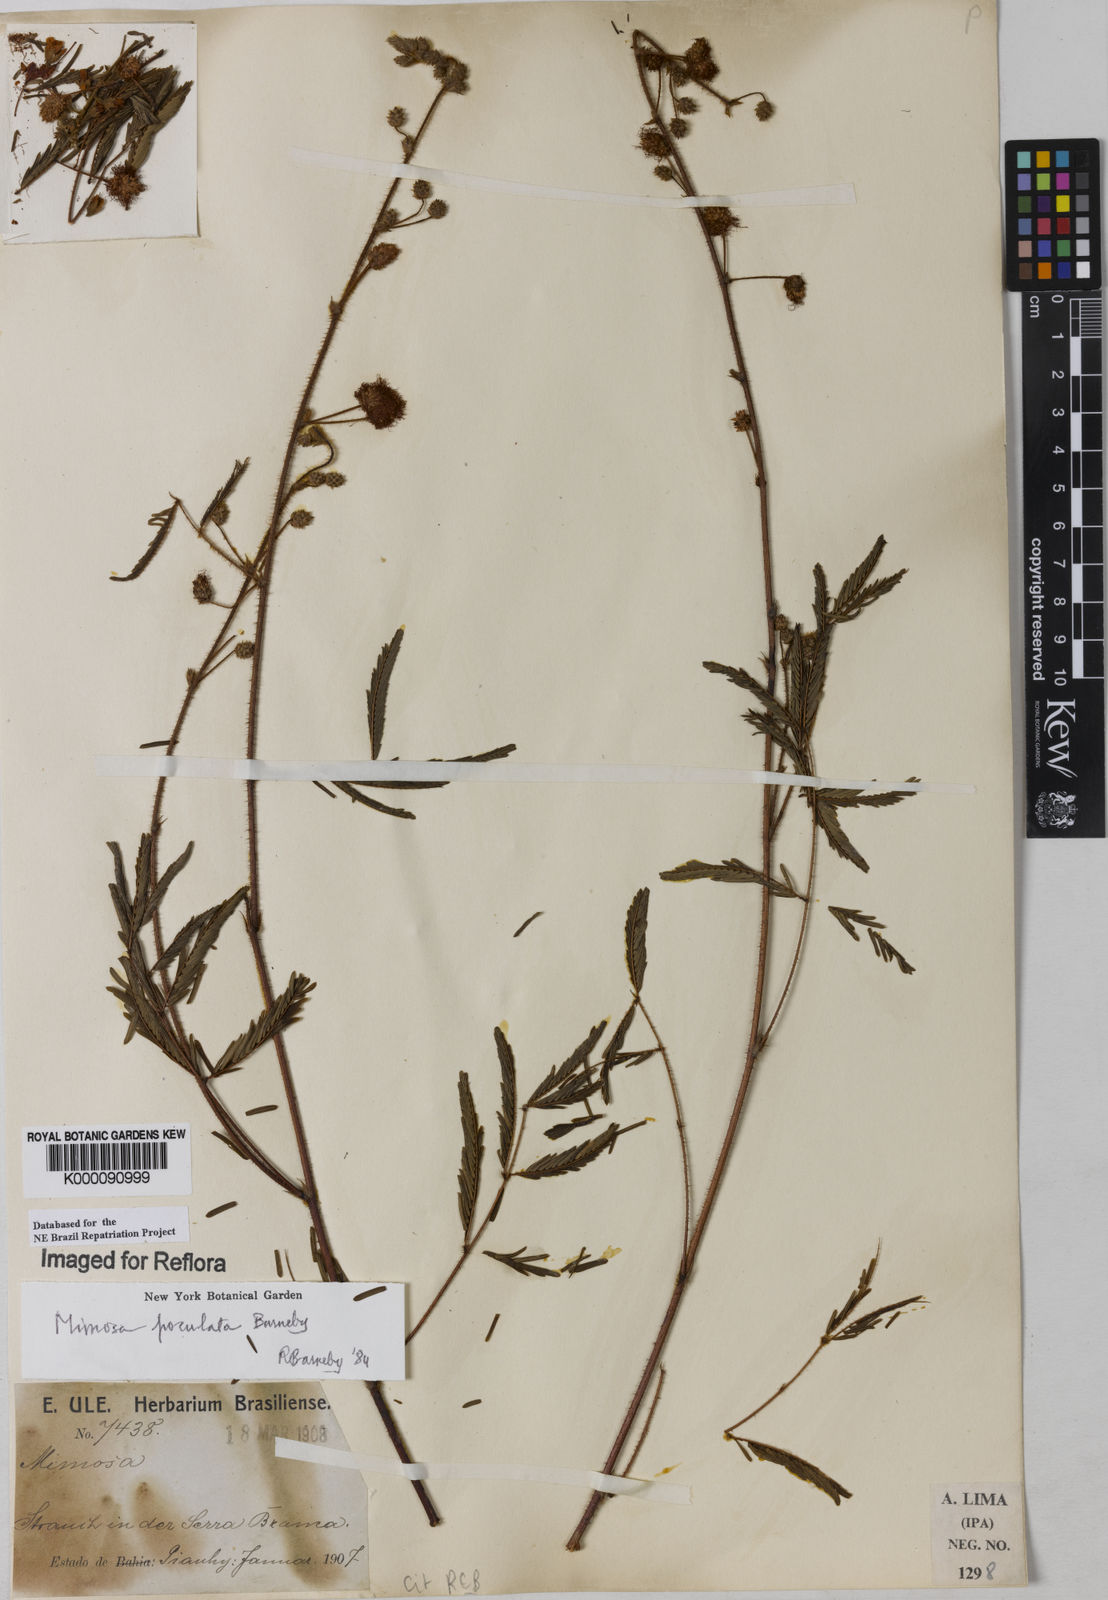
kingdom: Plantae
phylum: Tracheophyta
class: Magnoliopsida
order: Fabales
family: Fabaceae
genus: Mimosa
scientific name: Mimosa poculata
